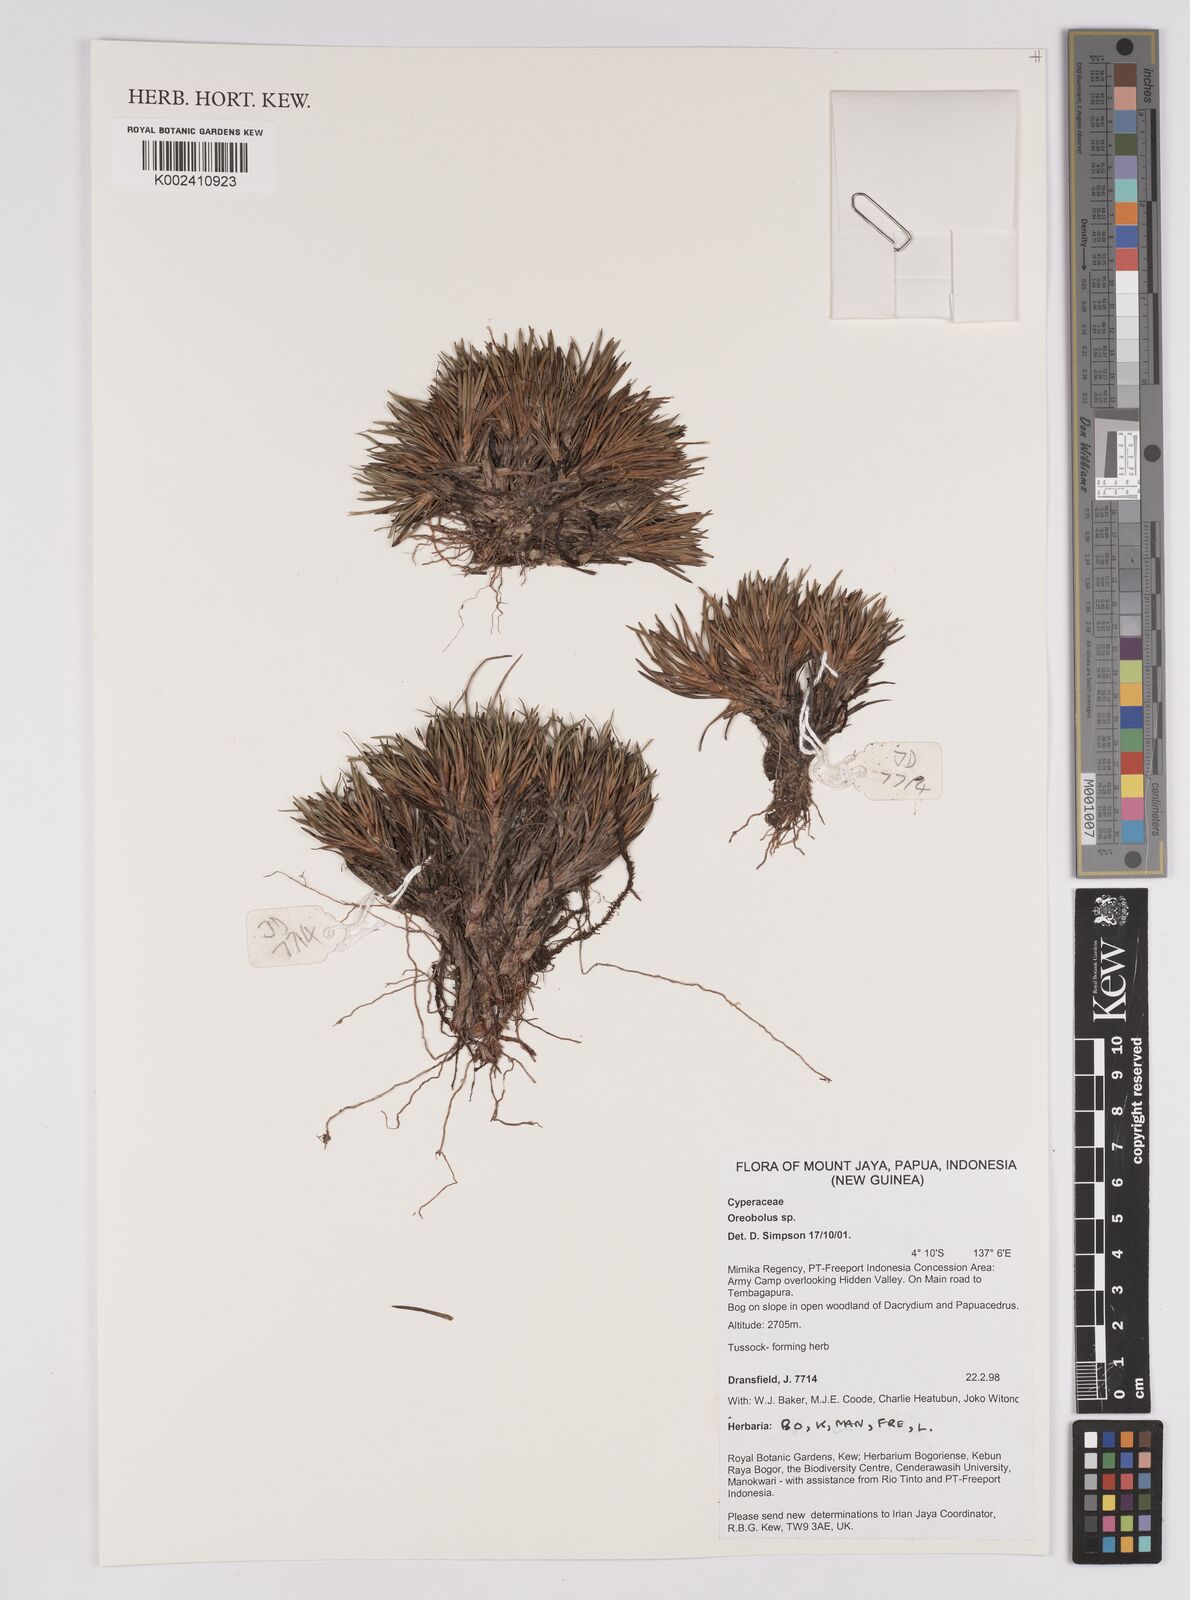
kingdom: Plantae
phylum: Tracheophyta
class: Liliopsida
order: Poales
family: Cyperaceae
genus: Oreobolus
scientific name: Oreobolus
